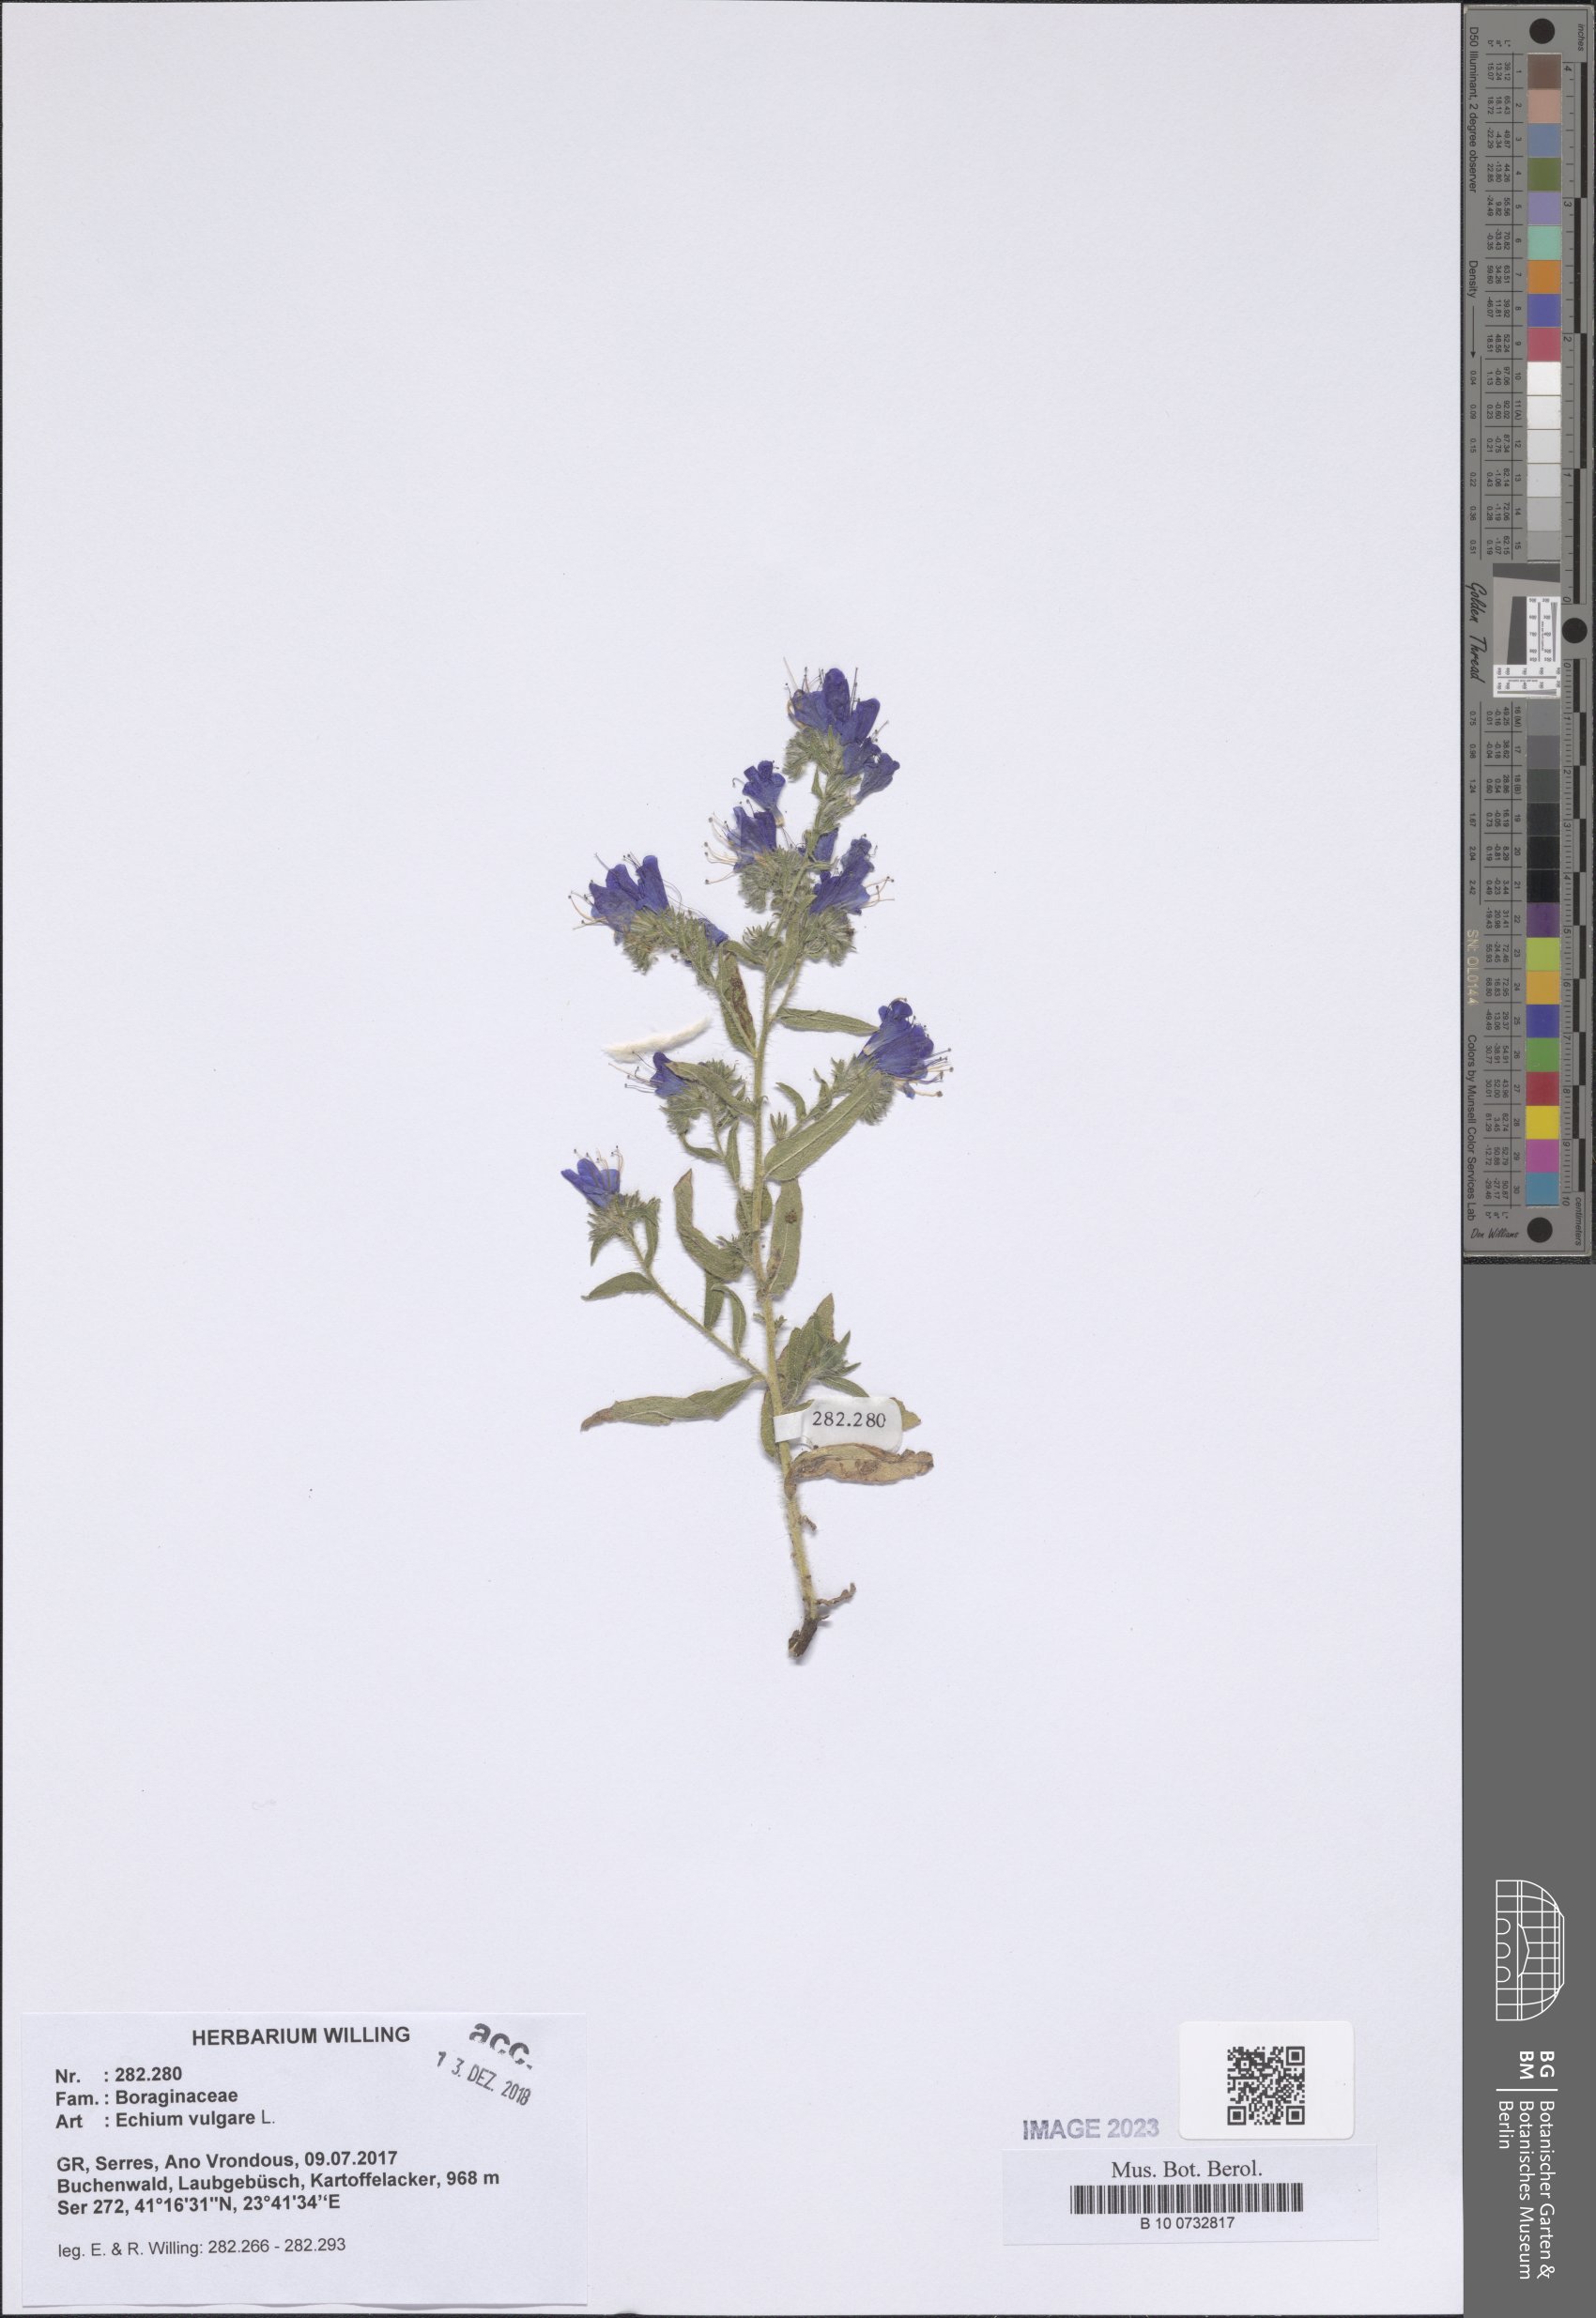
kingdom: Plantae
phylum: Tracheophyta
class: Magnoliopsida
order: Boraginales
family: Boraginaceae
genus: Echium
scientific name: Echium vulgare
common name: Common viper's bugloss
